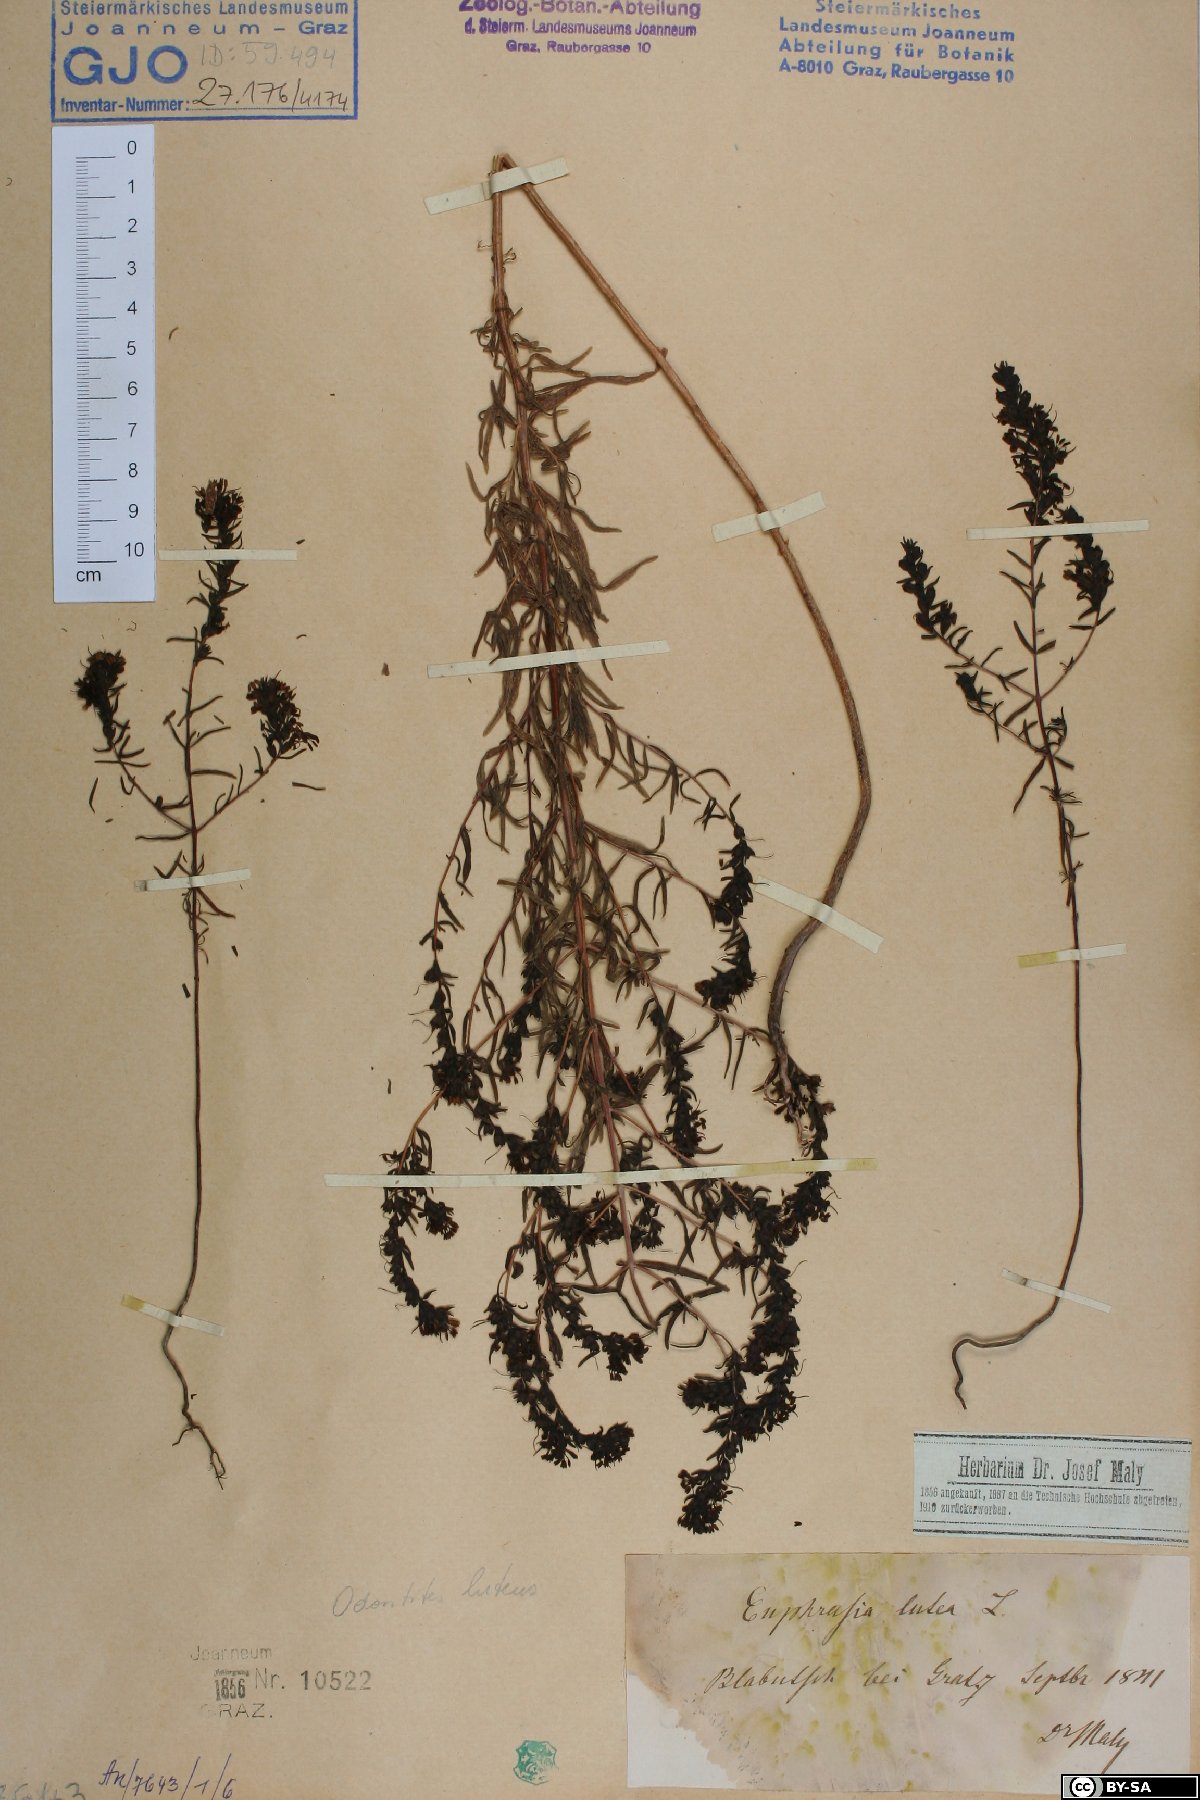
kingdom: Plantae
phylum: Tracheophyta
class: Magnoliopsida
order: Lamiales
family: Orobanchaceae
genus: Odontites
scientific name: Odontites luteus
